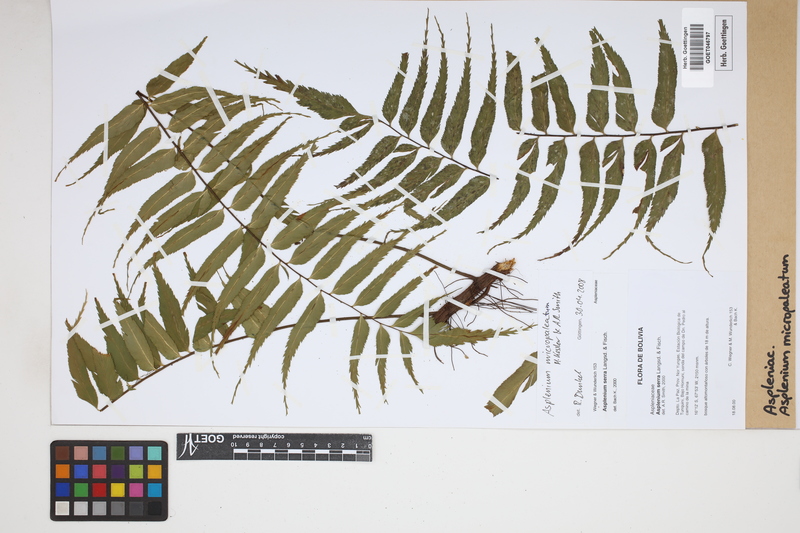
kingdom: Plantae
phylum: Tracheophyta
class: Polypodiopsida
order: Polypodiales
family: Aspleniaceae
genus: Asplenium
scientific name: Asplenium micropaleatum
